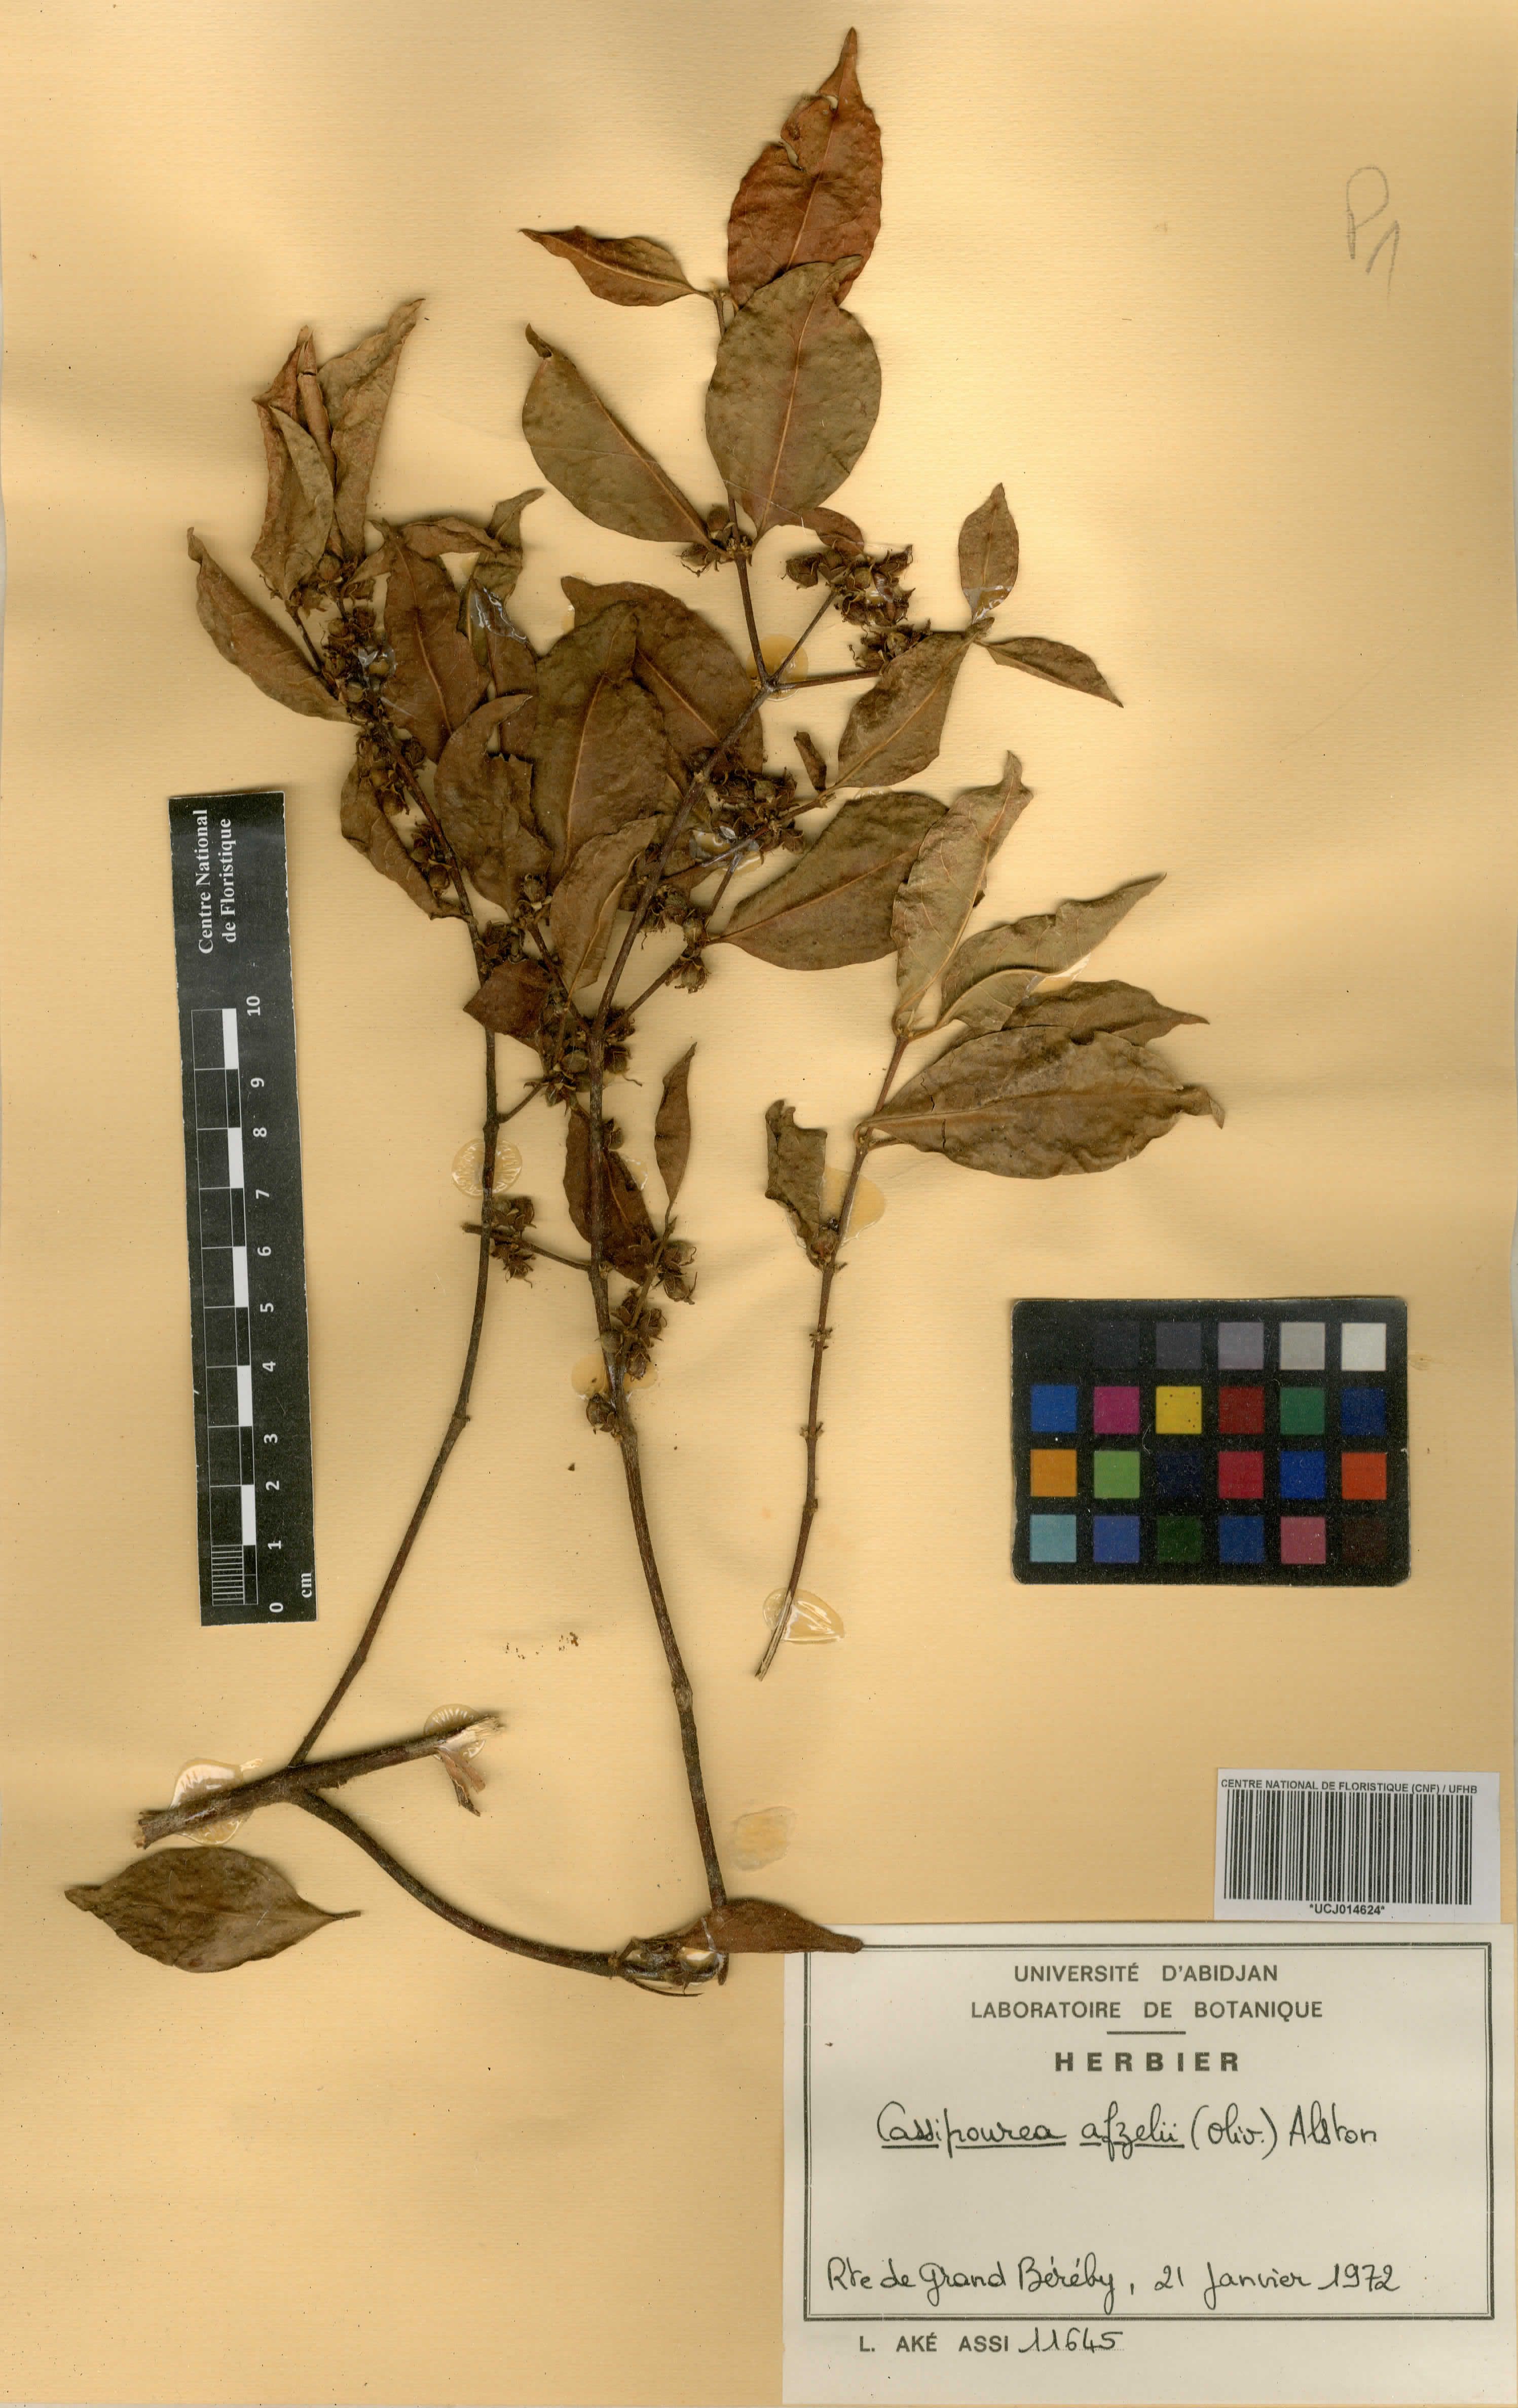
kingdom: Plantae
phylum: Tracheophyta
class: Magnoliopsida
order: Malpighiales
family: Rhizophoraceae
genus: Cassipourea
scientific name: Cassipourea afzelii
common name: Elephant tusk tree
